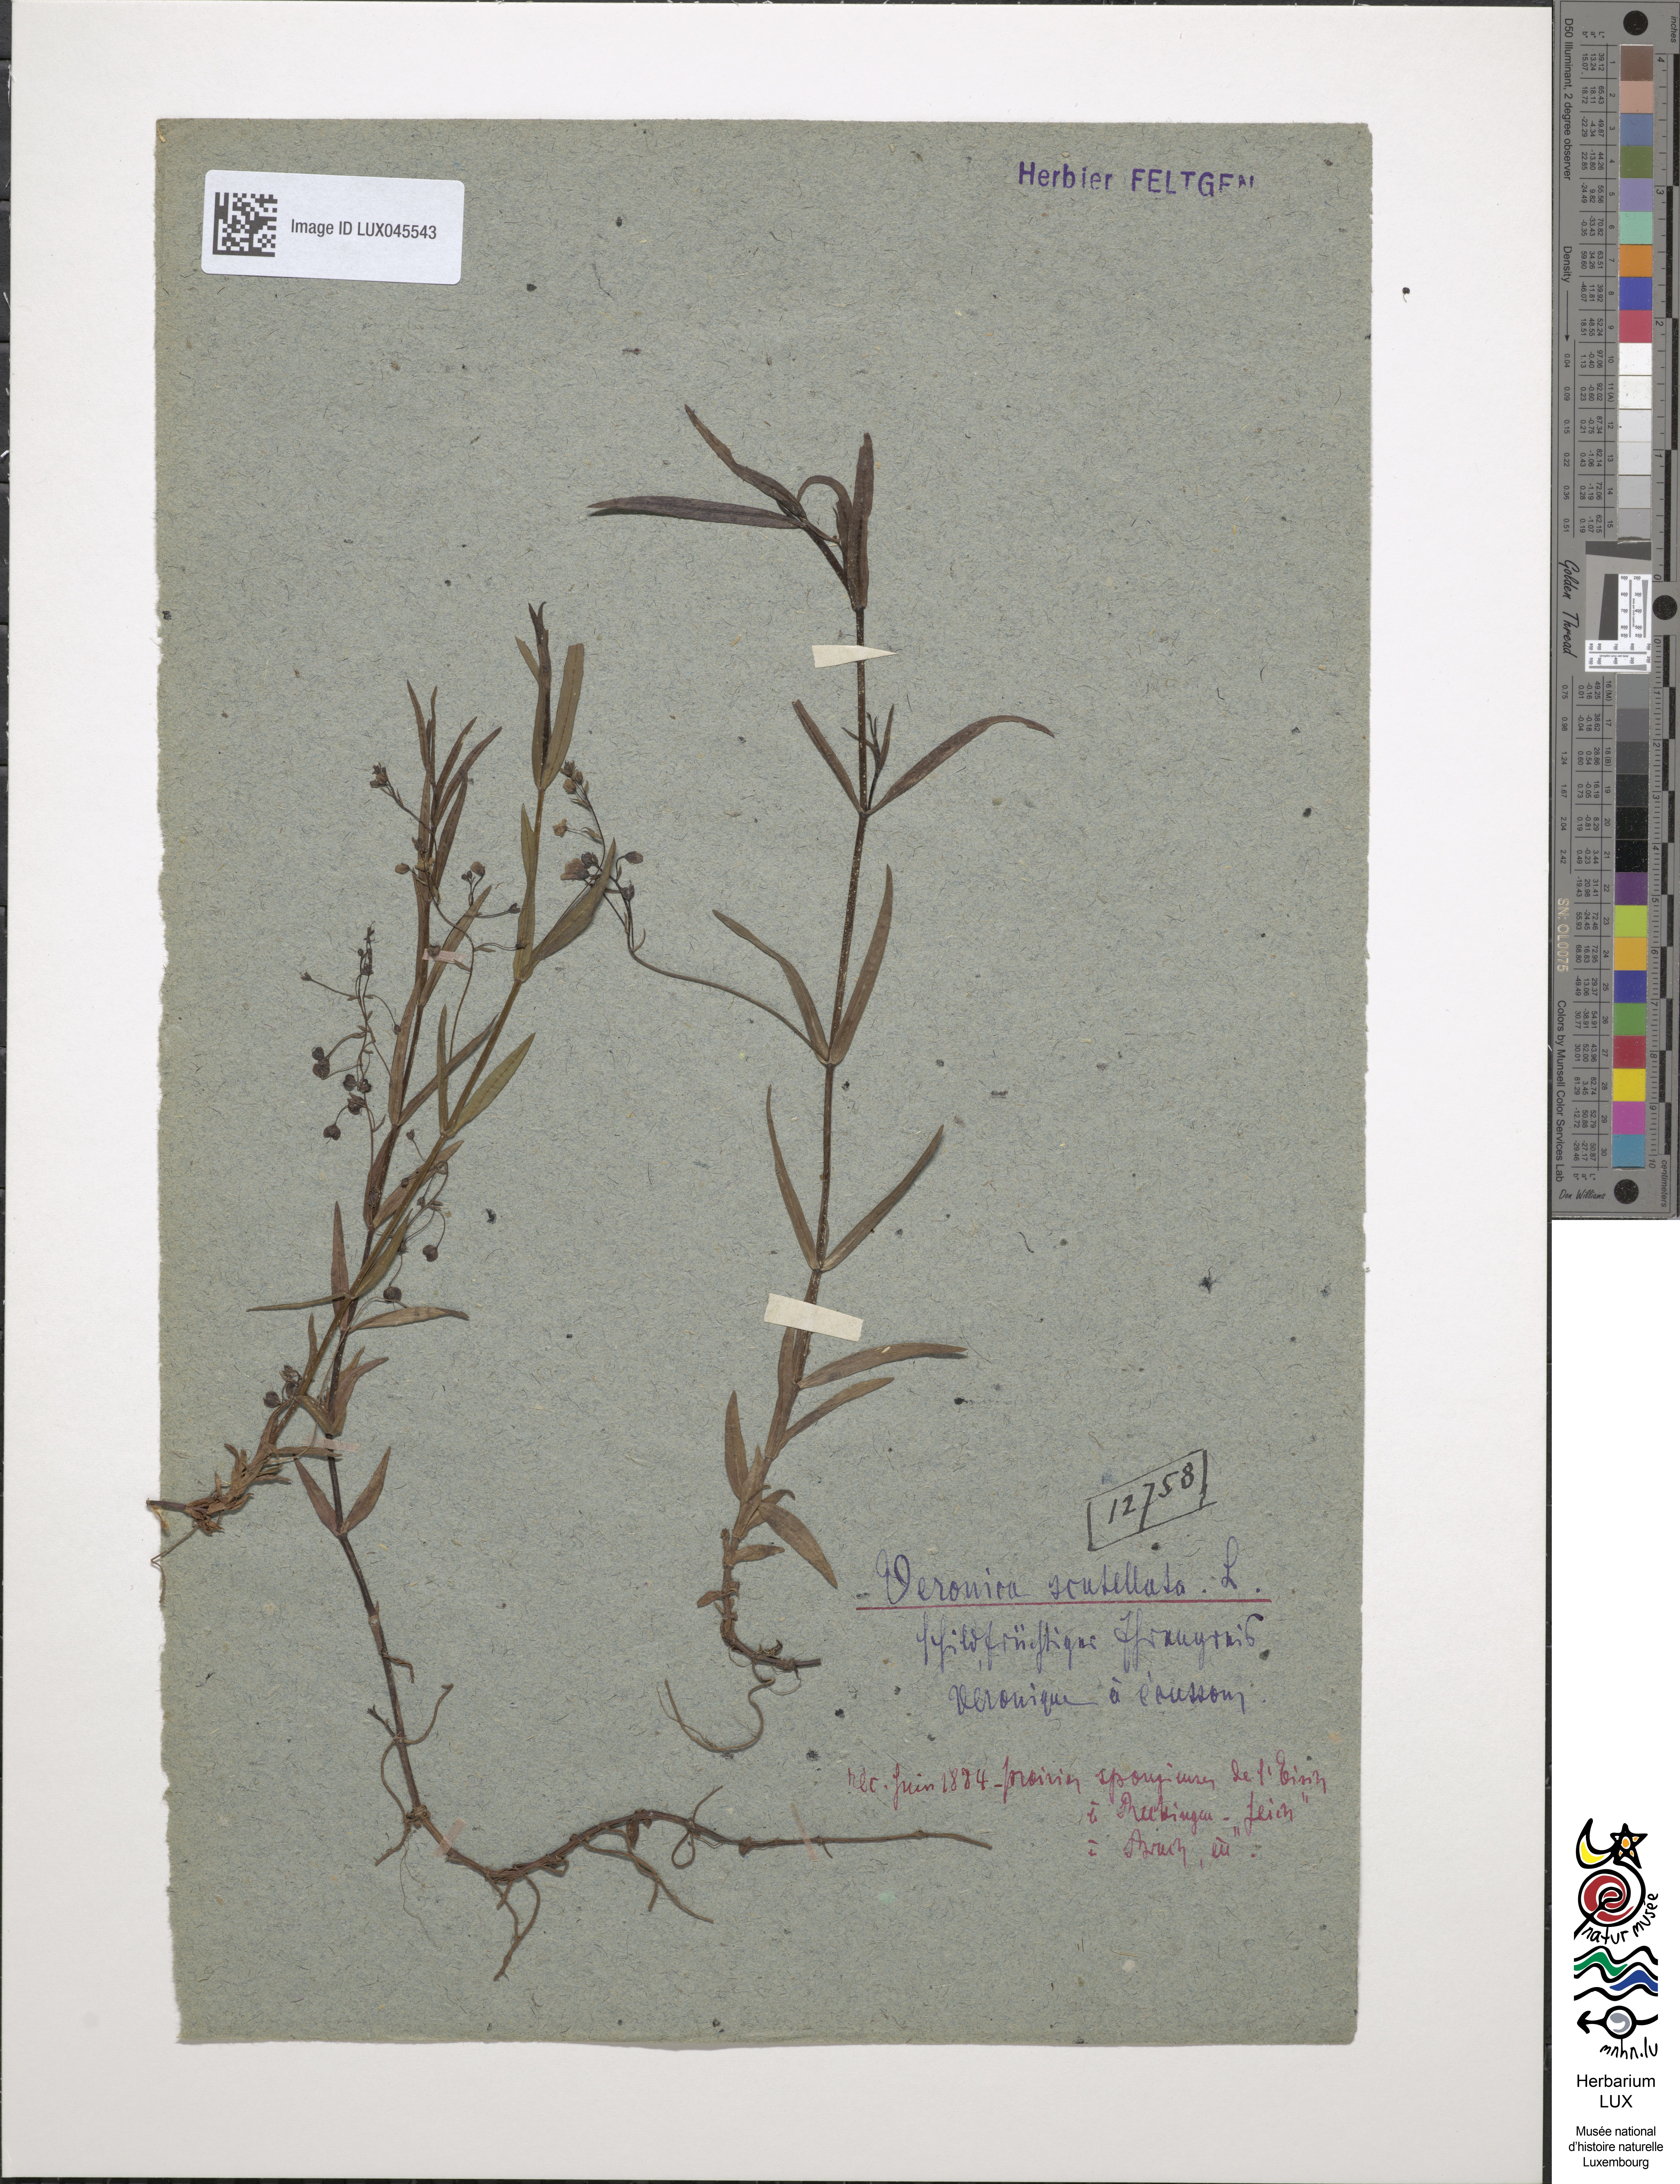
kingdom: Plantae
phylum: Tracheophyta
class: Magnoliopsida
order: Lamiales
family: Plantaginaceae
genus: Veronica
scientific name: Veronica scutellata
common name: Marsh speedwell
